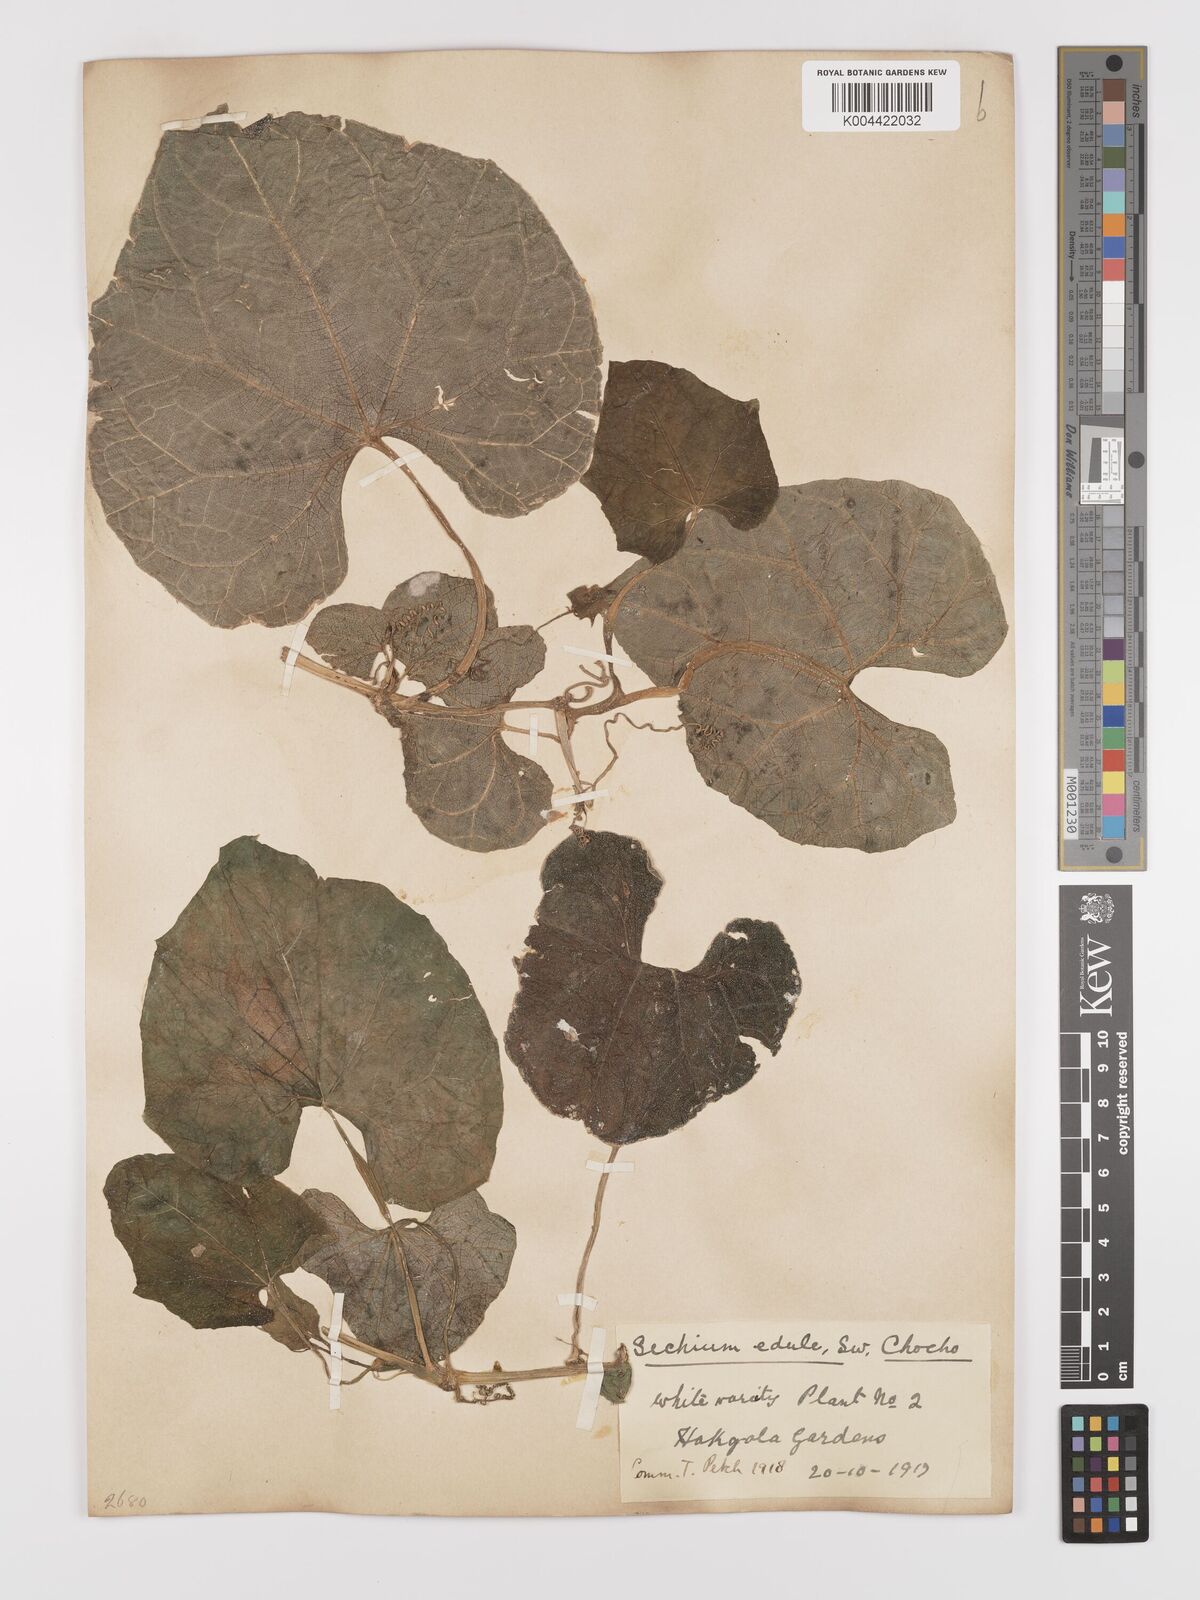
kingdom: Plantae
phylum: Tracheophyta
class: Magnoliopsida
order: Cucurbitales
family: Cucurbitaceae
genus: Sechium
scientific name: Sechium edule
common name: Chayote
